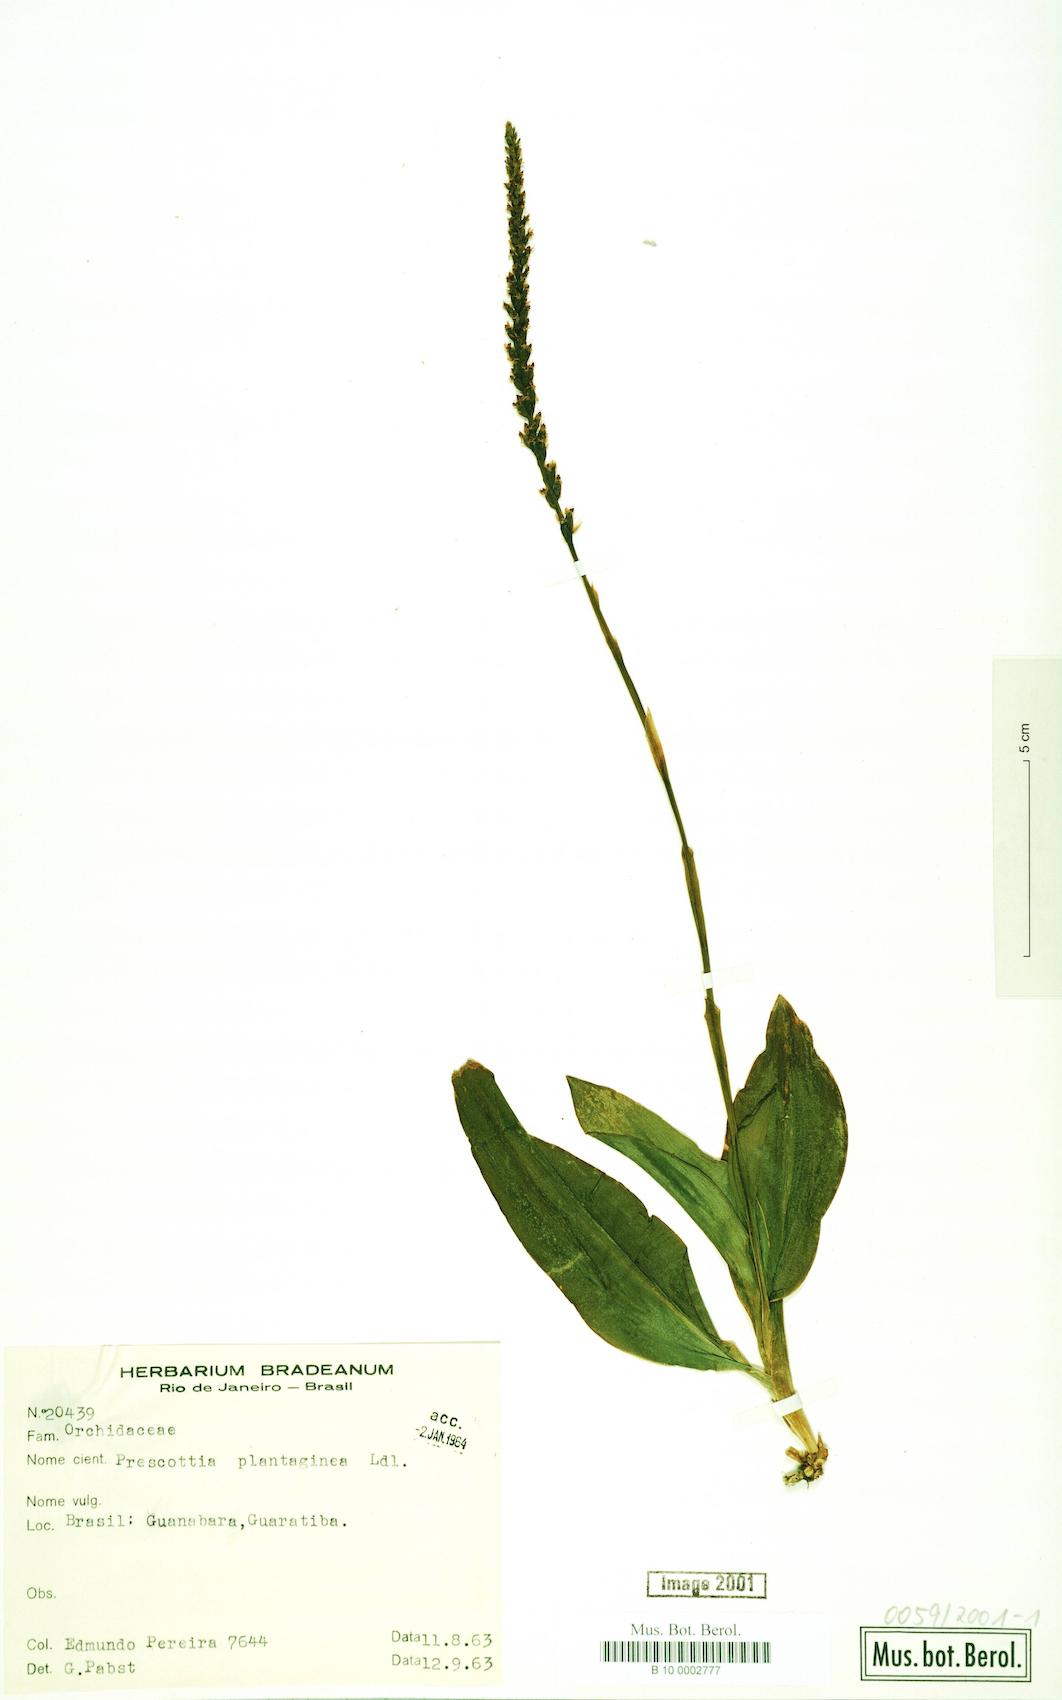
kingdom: Plantae
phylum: Tracheophyta
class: Liliopsida
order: Asparagales
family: Orchidaceae
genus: Prescottia
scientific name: Prescottia plantaginea
